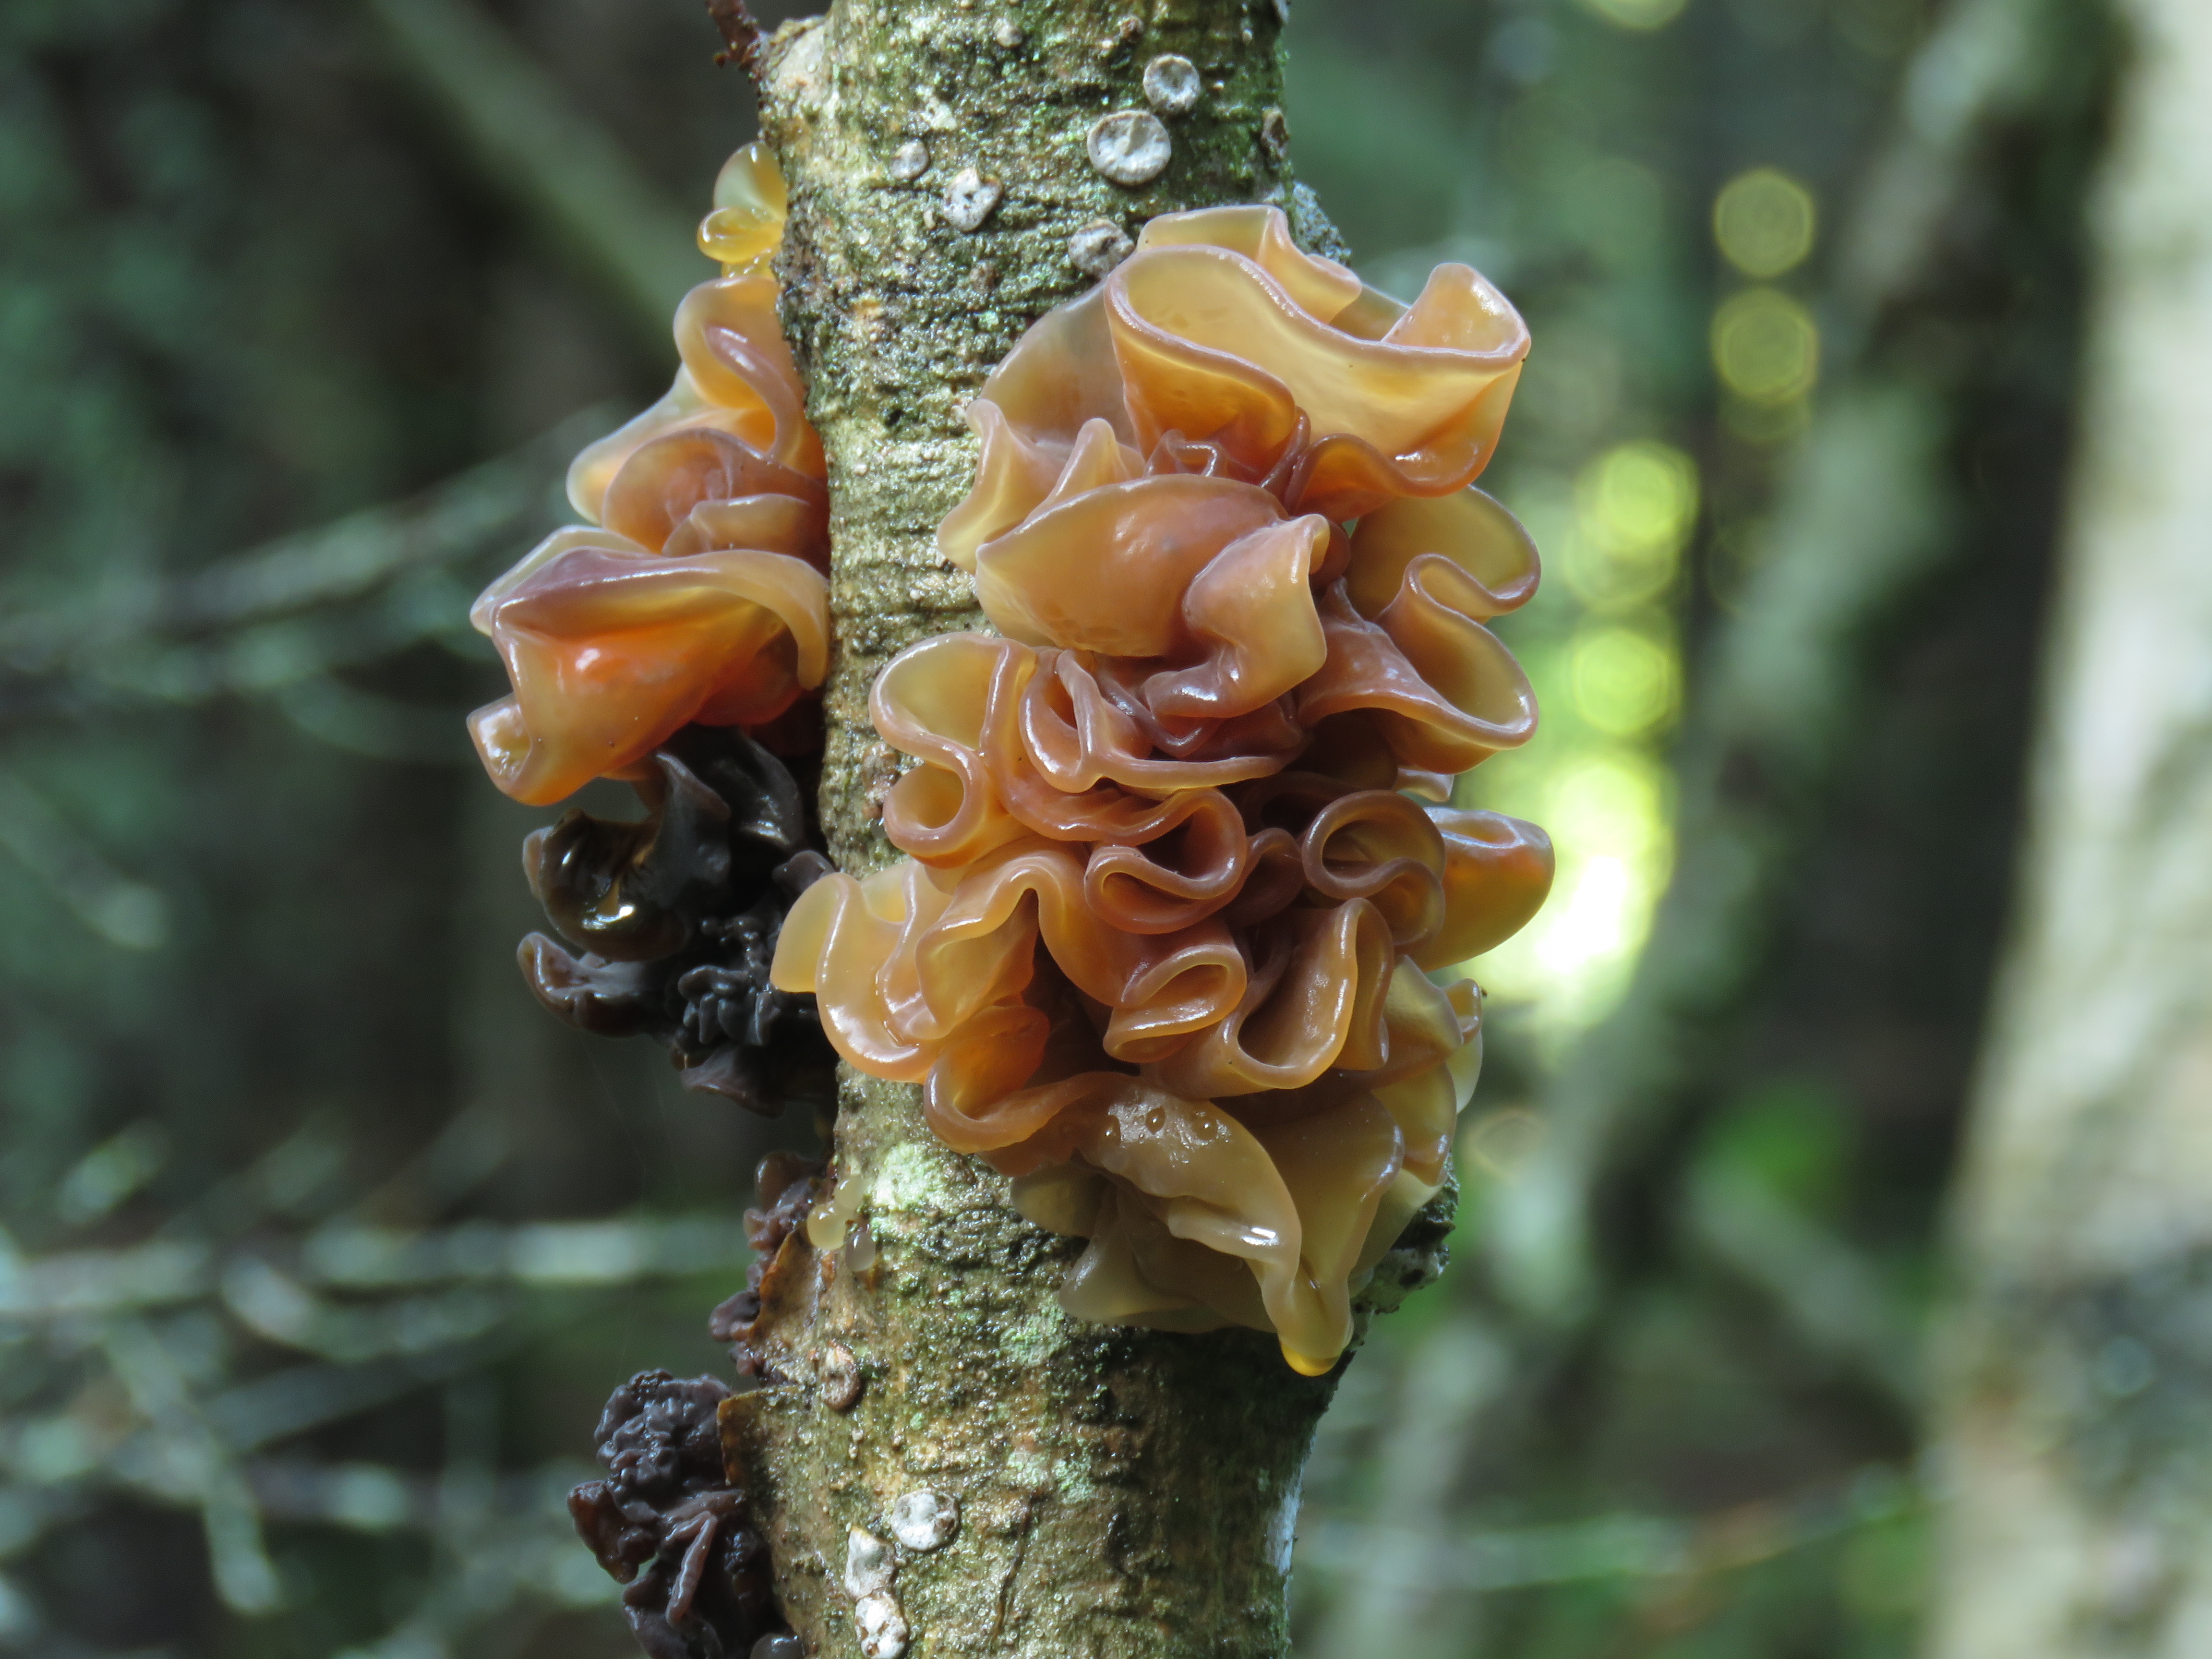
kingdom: Fungi
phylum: Basidiomycota
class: Tremellomycetes
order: Tremellales
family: Tremellaceae
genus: Phaeotremella
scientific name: Phaeotremella foliacea
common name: Leafy brain
